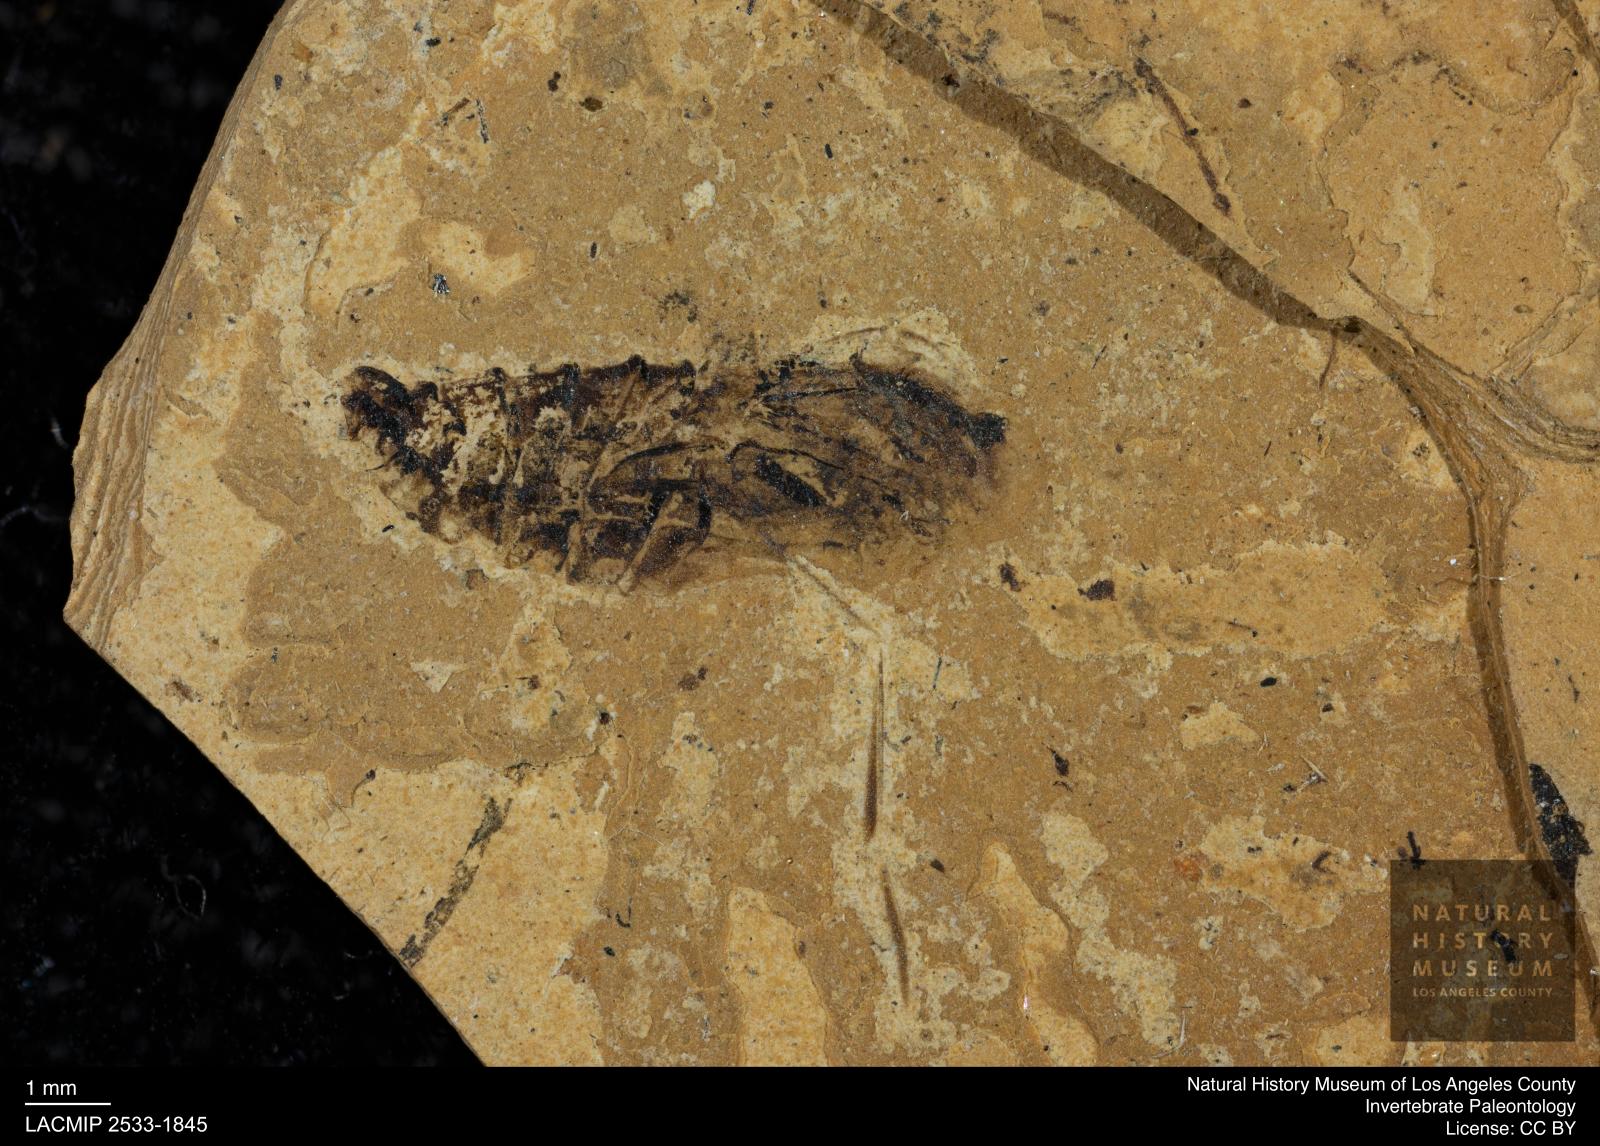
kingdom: Animalia
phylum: Arthropoda
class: Insecta
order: Hemiptera
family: Notonectidae
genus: Notonecta
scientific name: Notonecta
